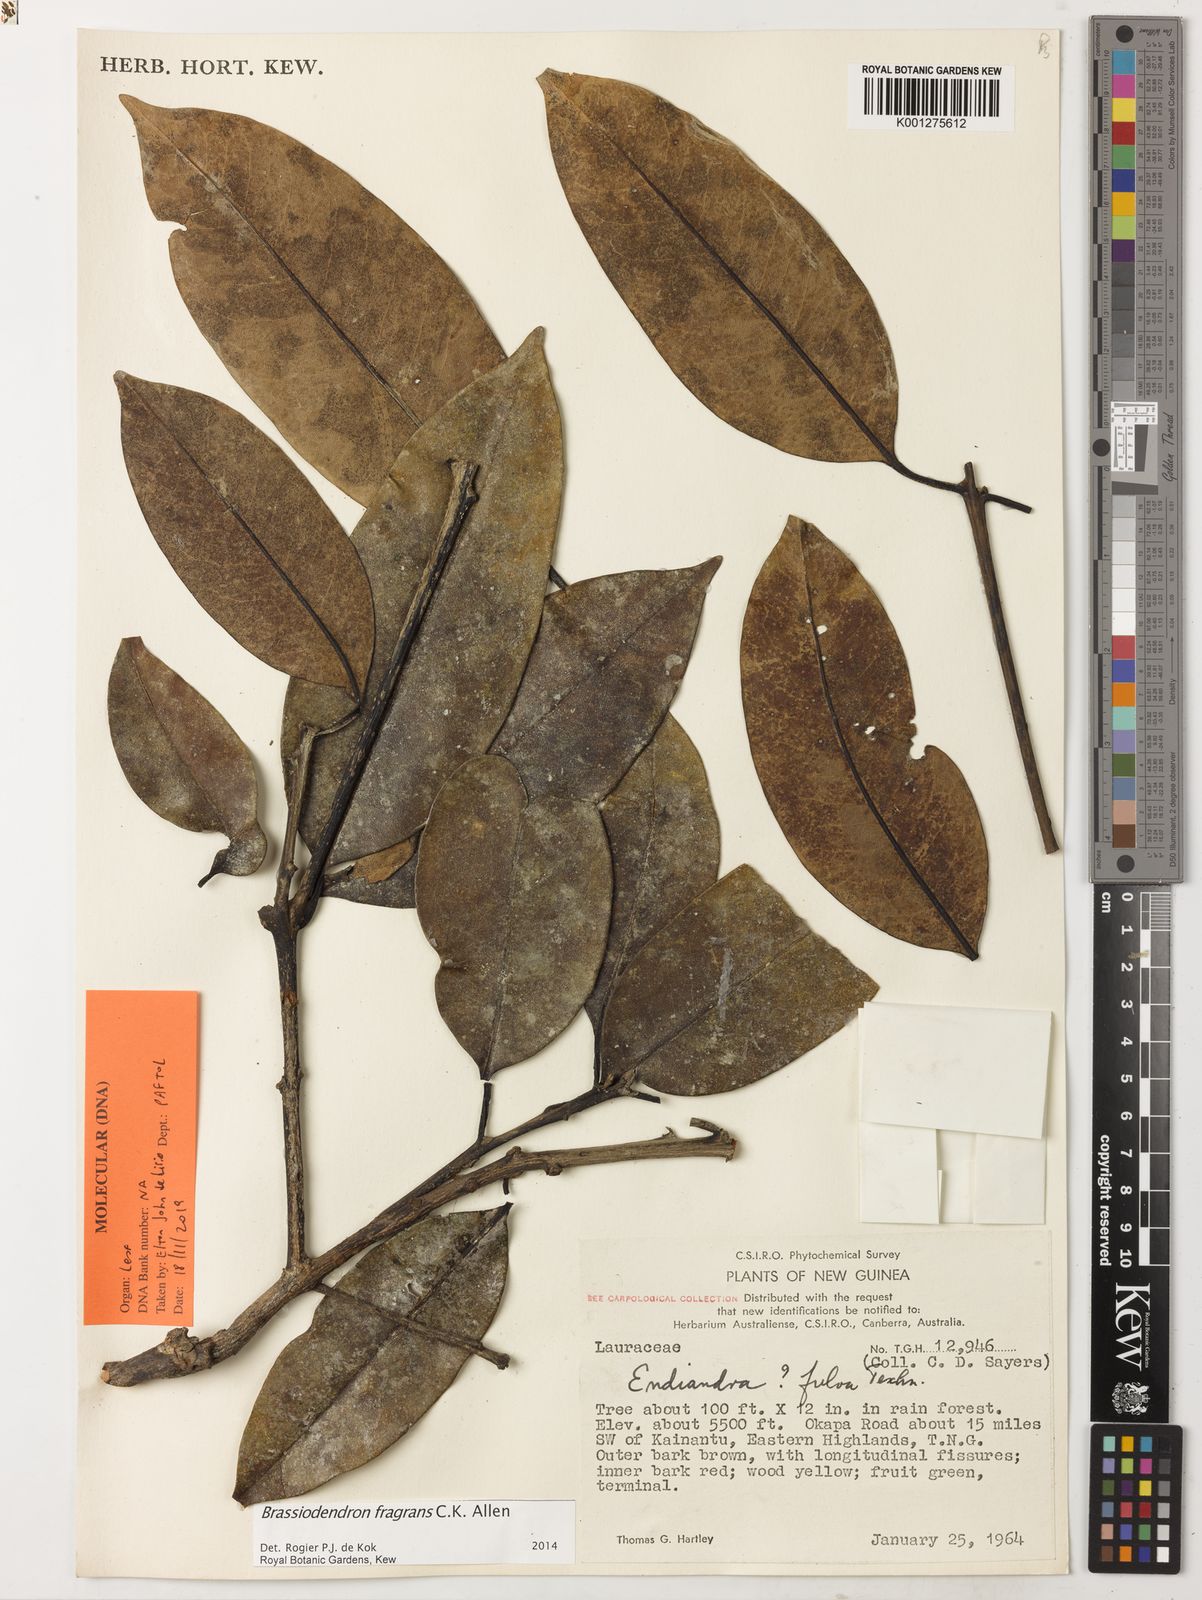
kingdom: Plantae
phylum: Tracheophyta
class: Magnoliopsida
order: Laurales
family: Lauraceae
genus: Endiandra
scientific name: Endiandra montana
